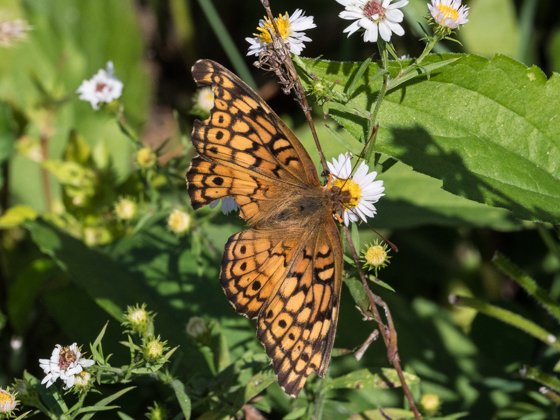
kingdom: Animalia
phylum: Arthropoda
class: Insecta
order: Lepidoptera
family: Nymphalidae
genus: Euptoieta
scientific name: Euptoieta claudia
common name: Variegated Fritillary
